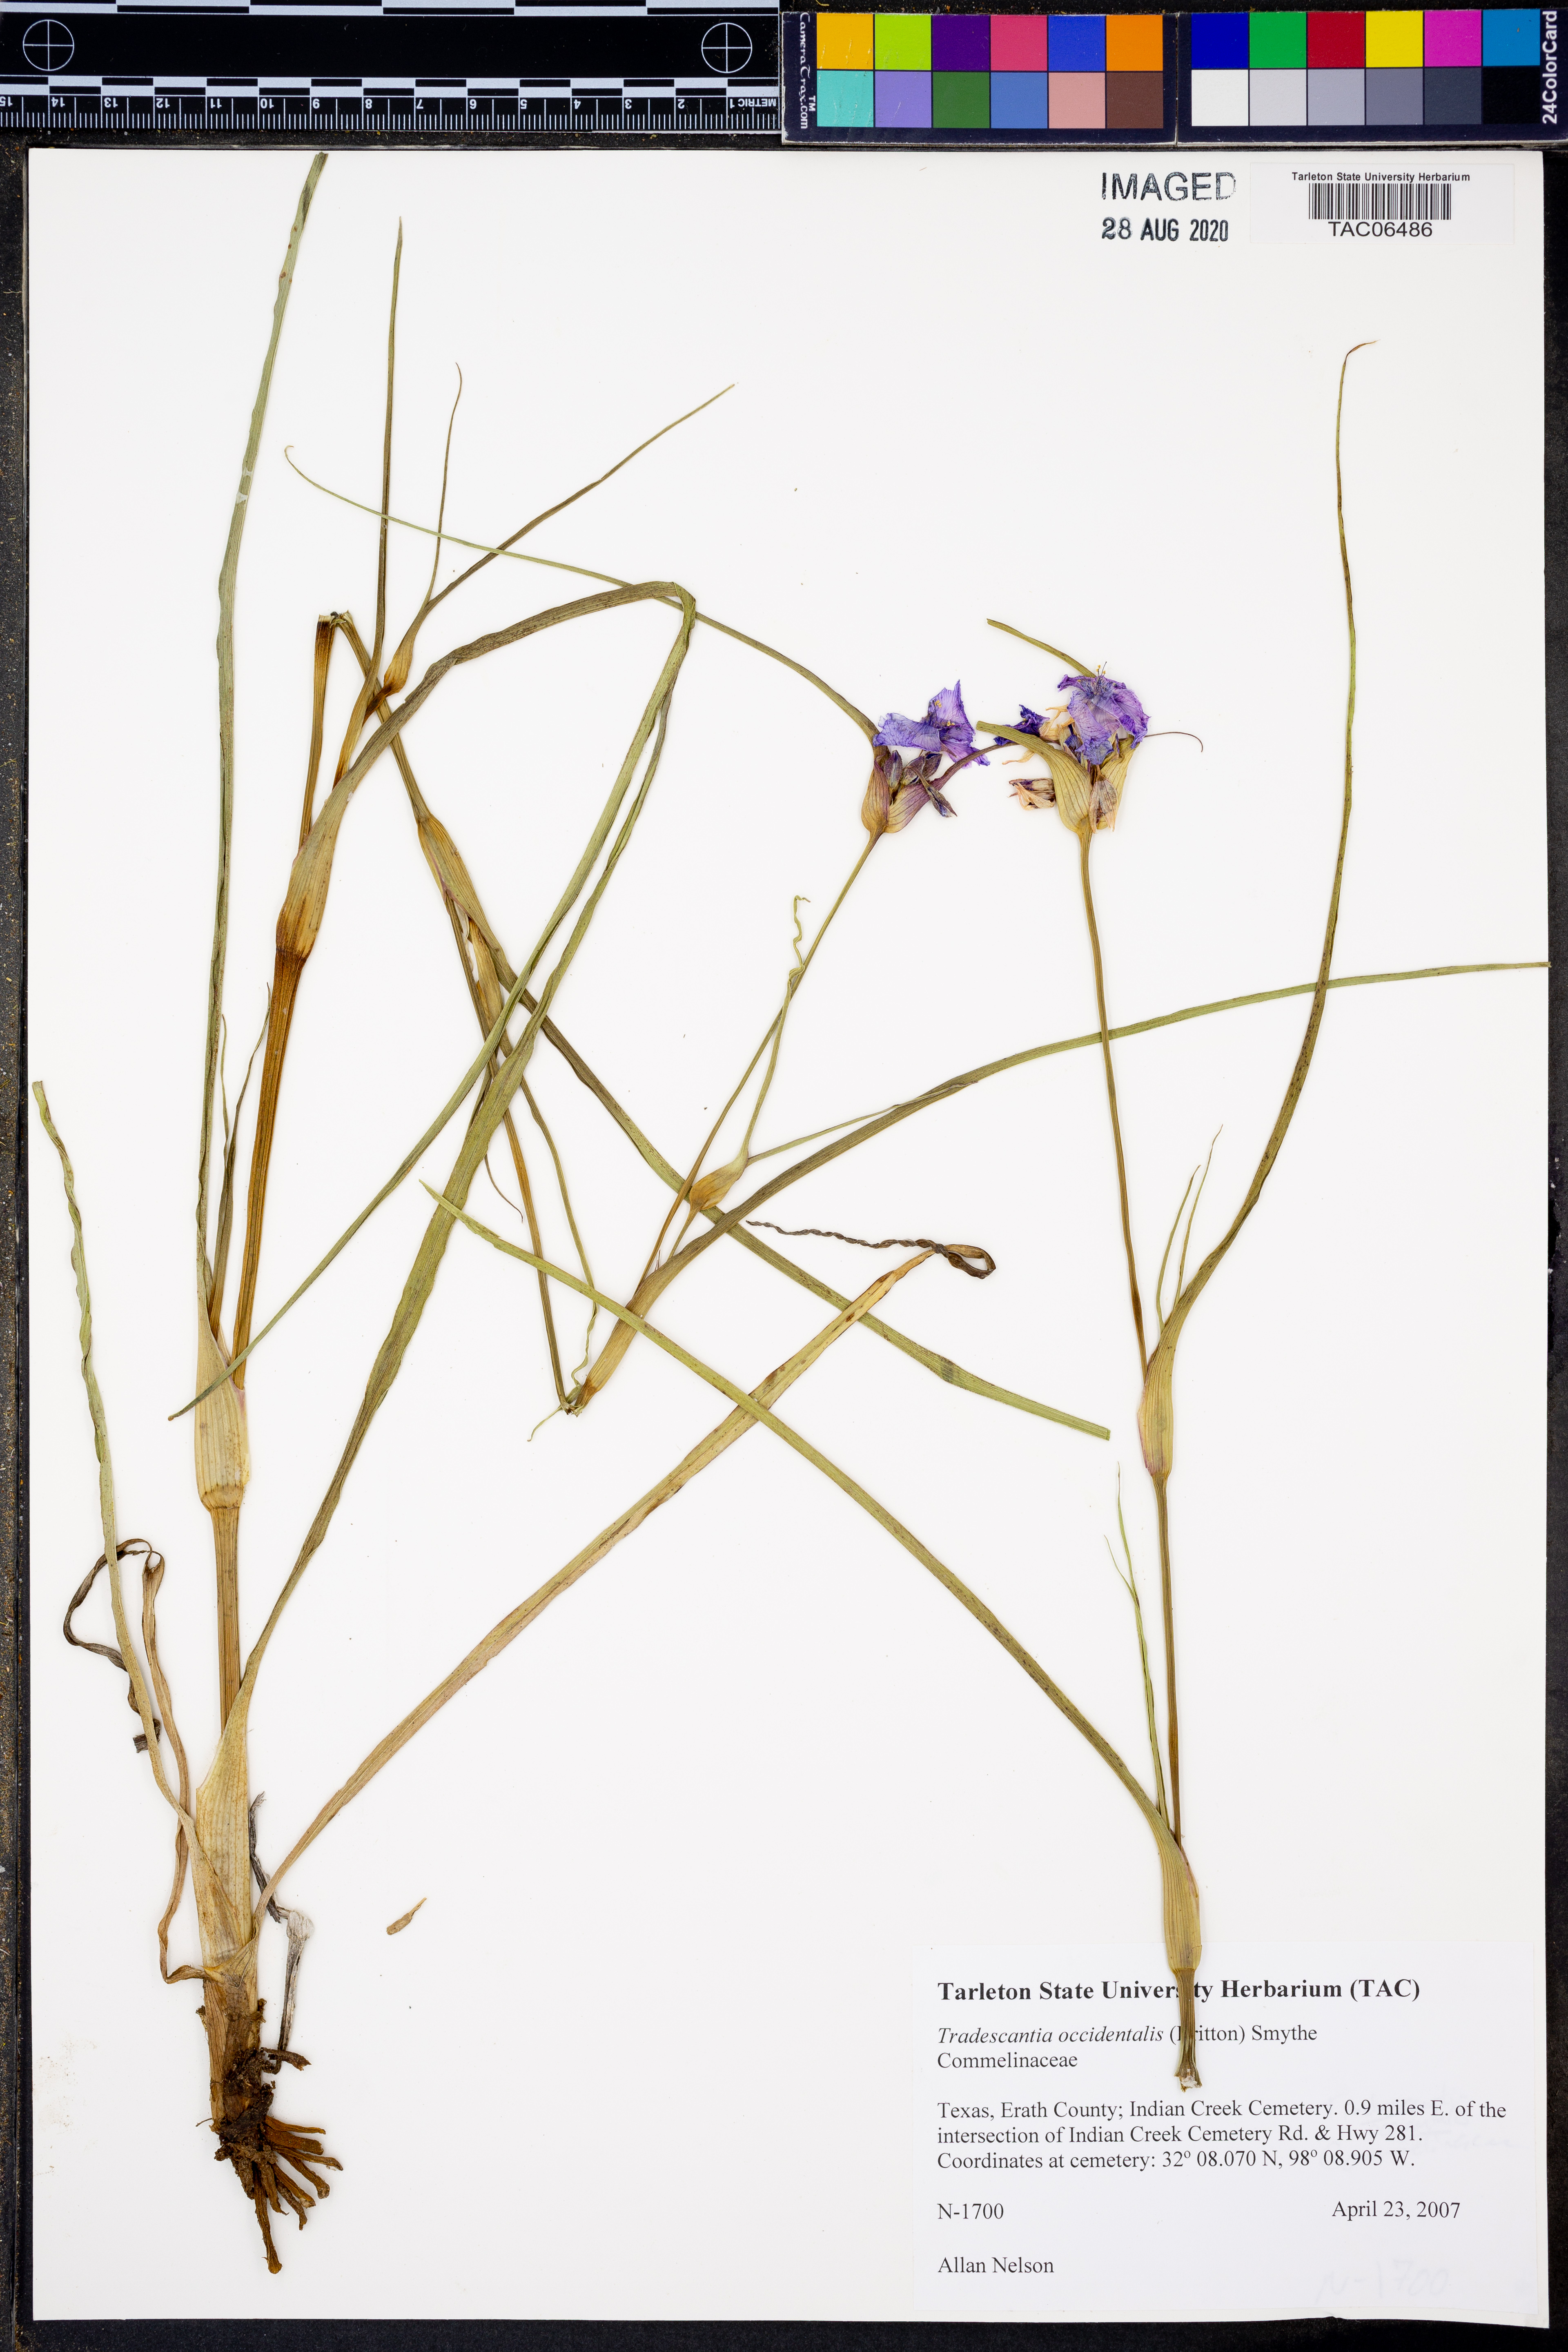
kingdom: Plantae
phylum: Tracheophyta
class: Liliopsida
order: Commelinales
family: Commelinaceae
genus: Tradescantia
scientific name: Tradescantia occidentalis
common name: Prairie spiderwort
